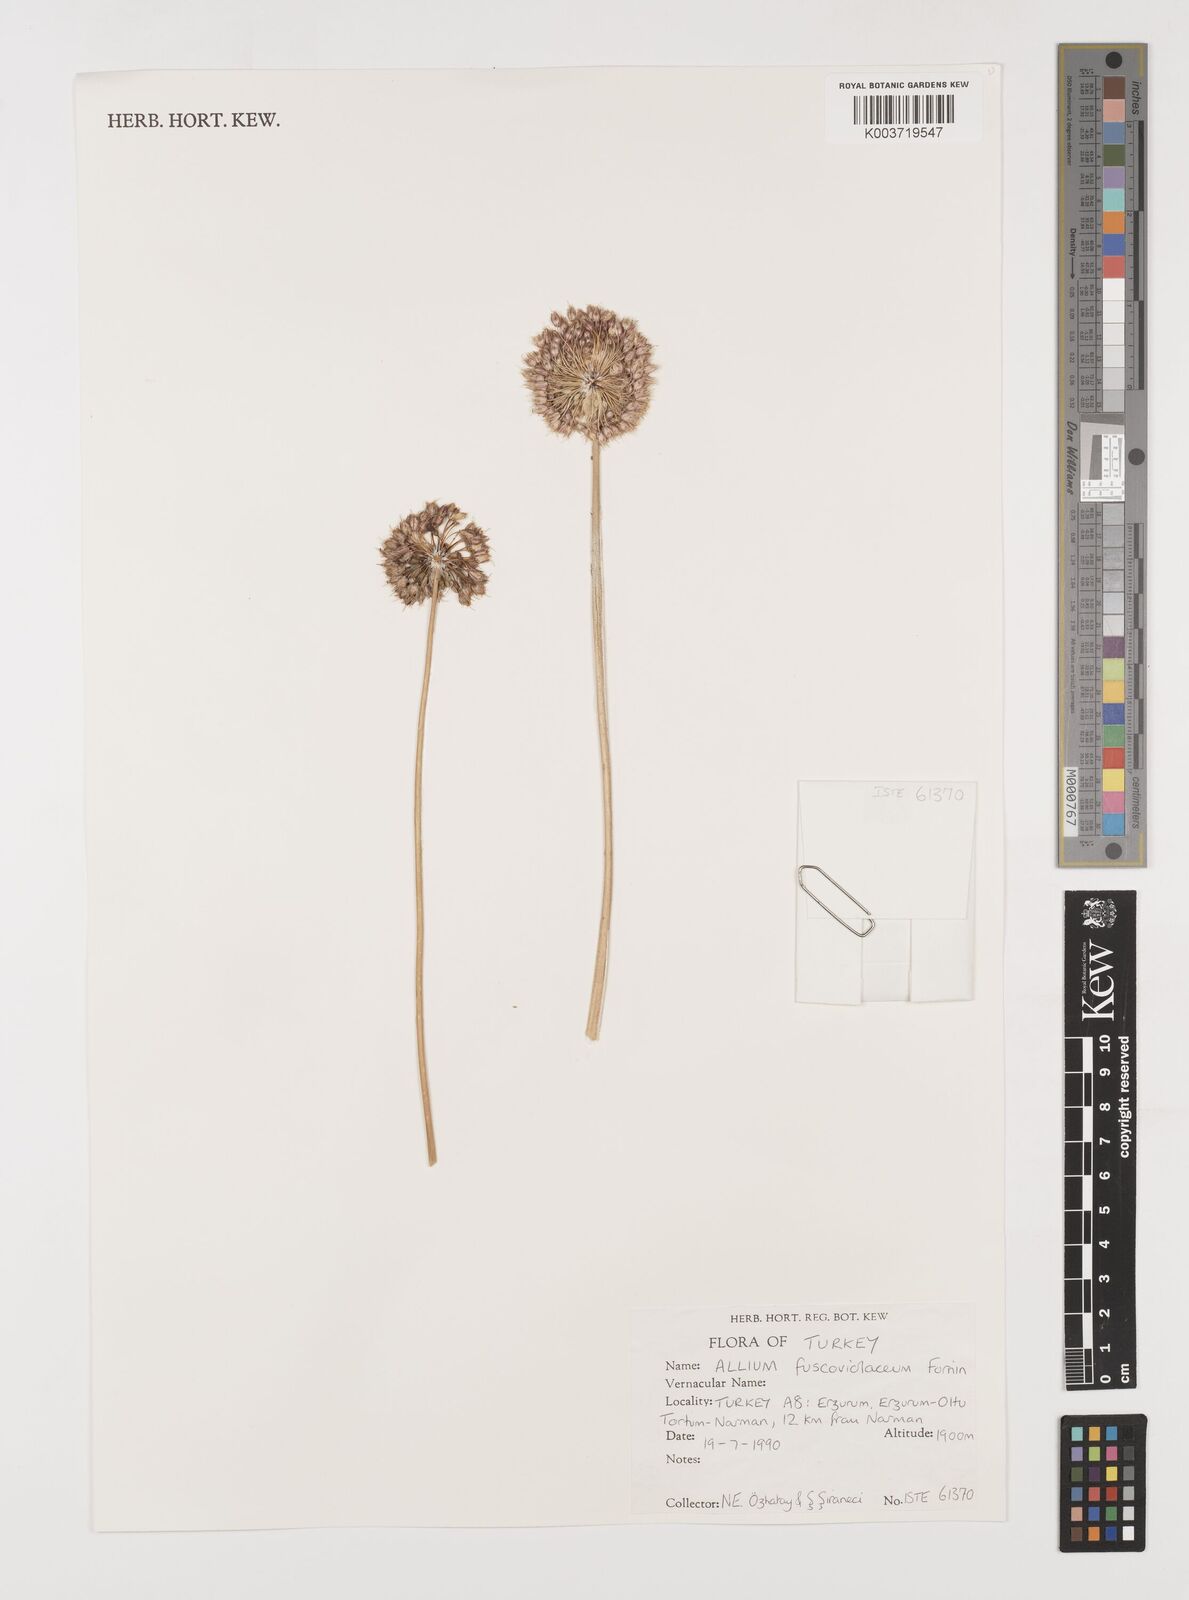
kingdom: Plantae
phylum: Tracheophyta
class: Liliopsida
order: Asparagales
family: Amaryllidaceae
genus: Allium
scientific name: Allium fuscoviolaceum
